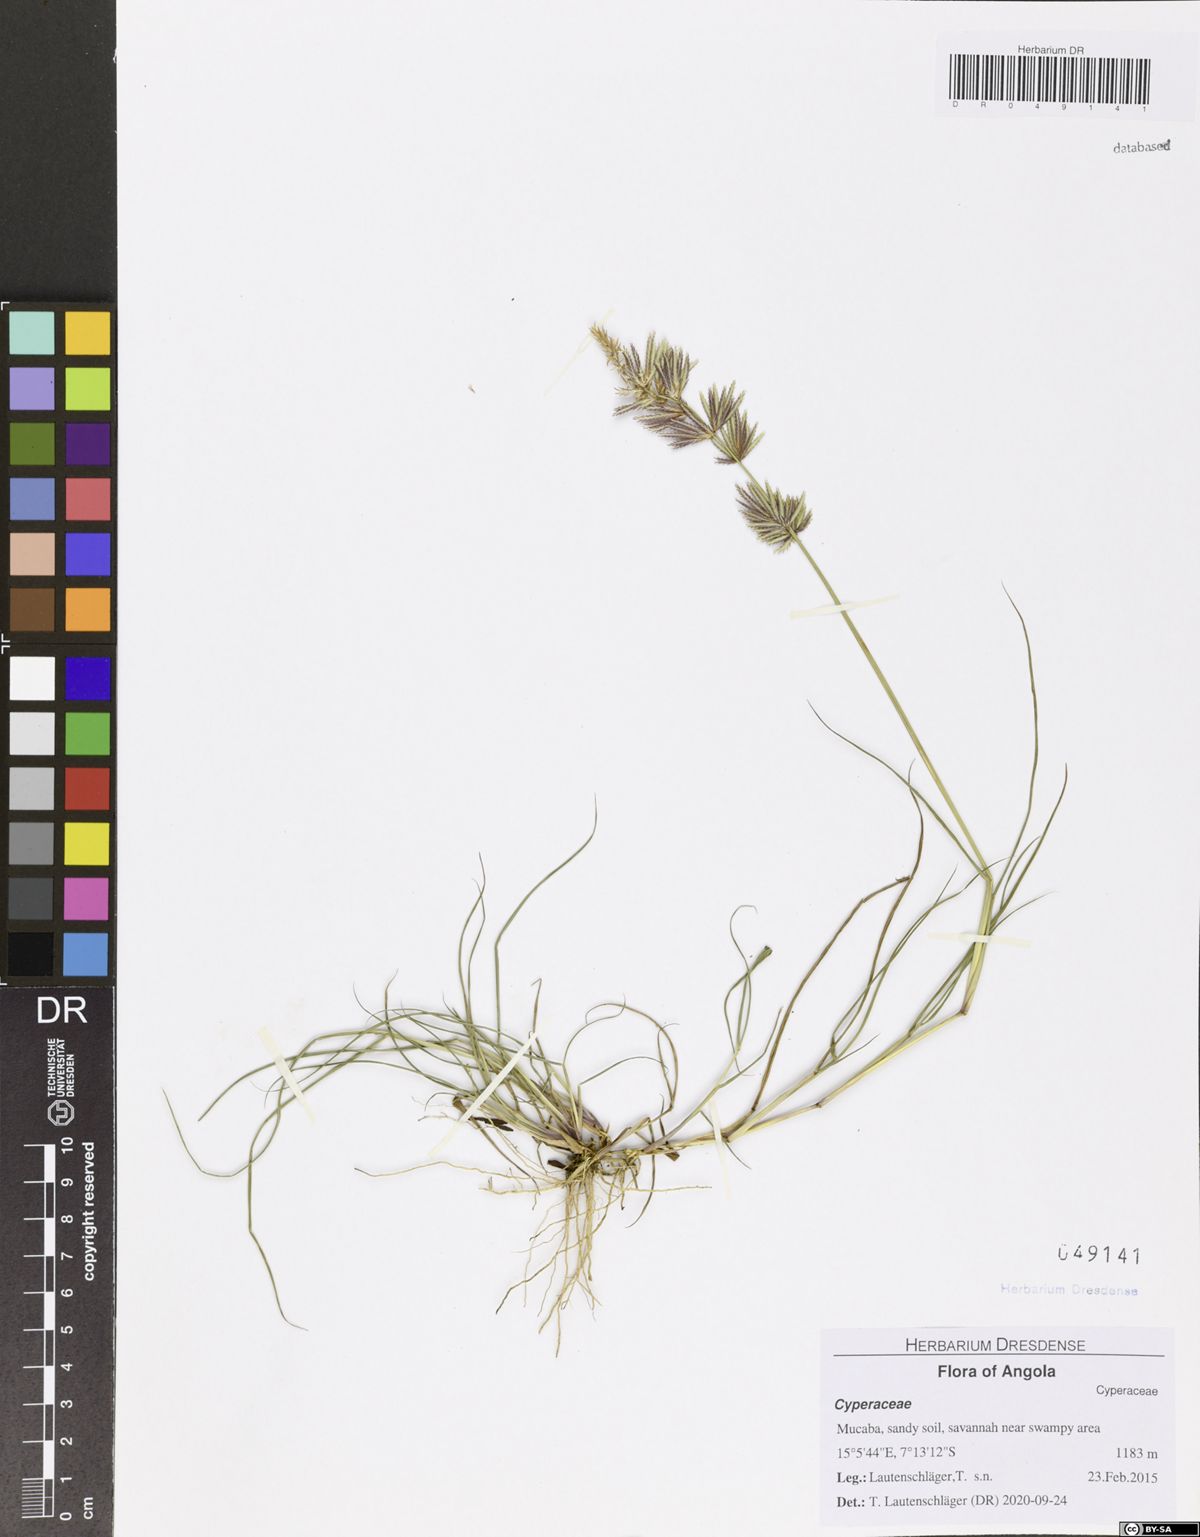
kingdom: Plantae
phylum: Tracheophyta
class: Liliopsida
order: Poales
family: Poaceae
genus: Eragrostis
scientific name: Eragrostis patens
